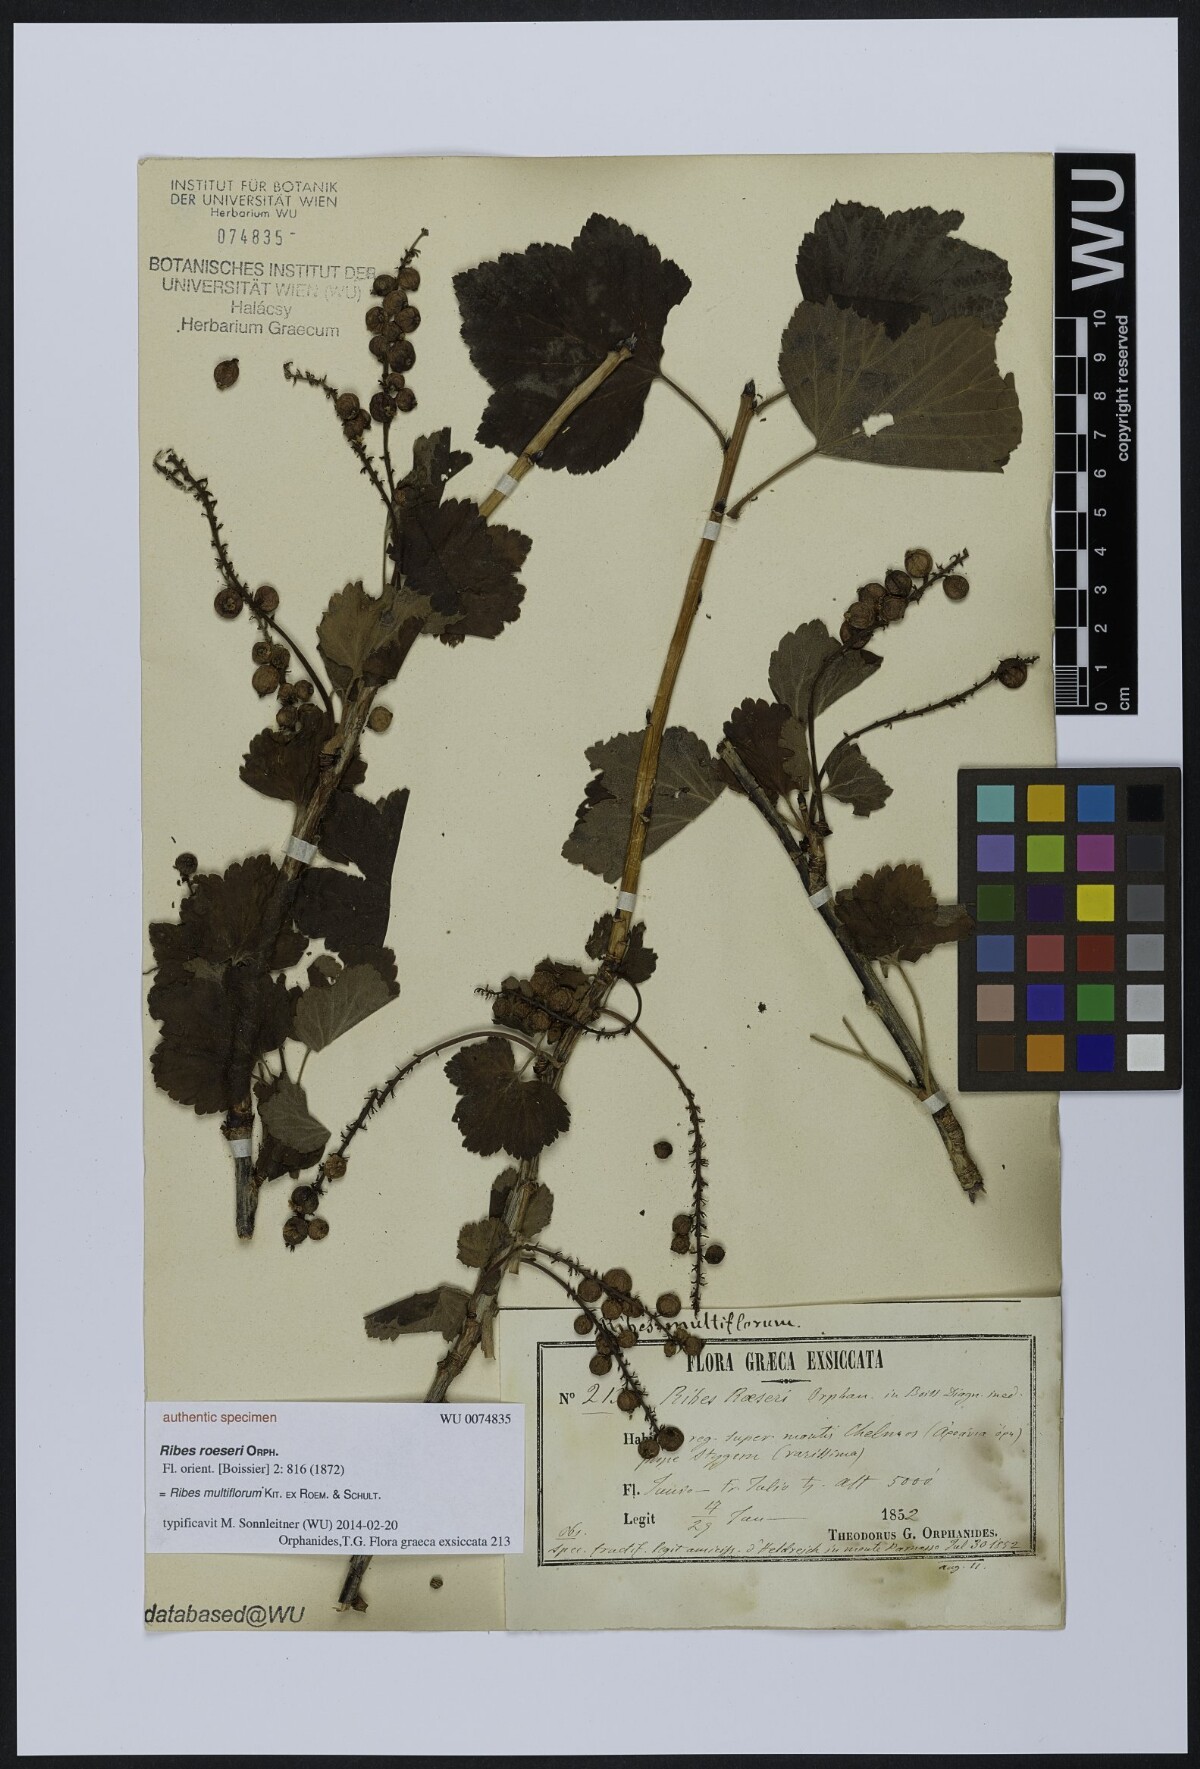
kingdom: Plantae
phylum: Tracheophyta
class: Magnoliopsida
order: Saxifragales
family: Grossulariaceae
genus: Ribes
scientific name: Ribes multiflorum
